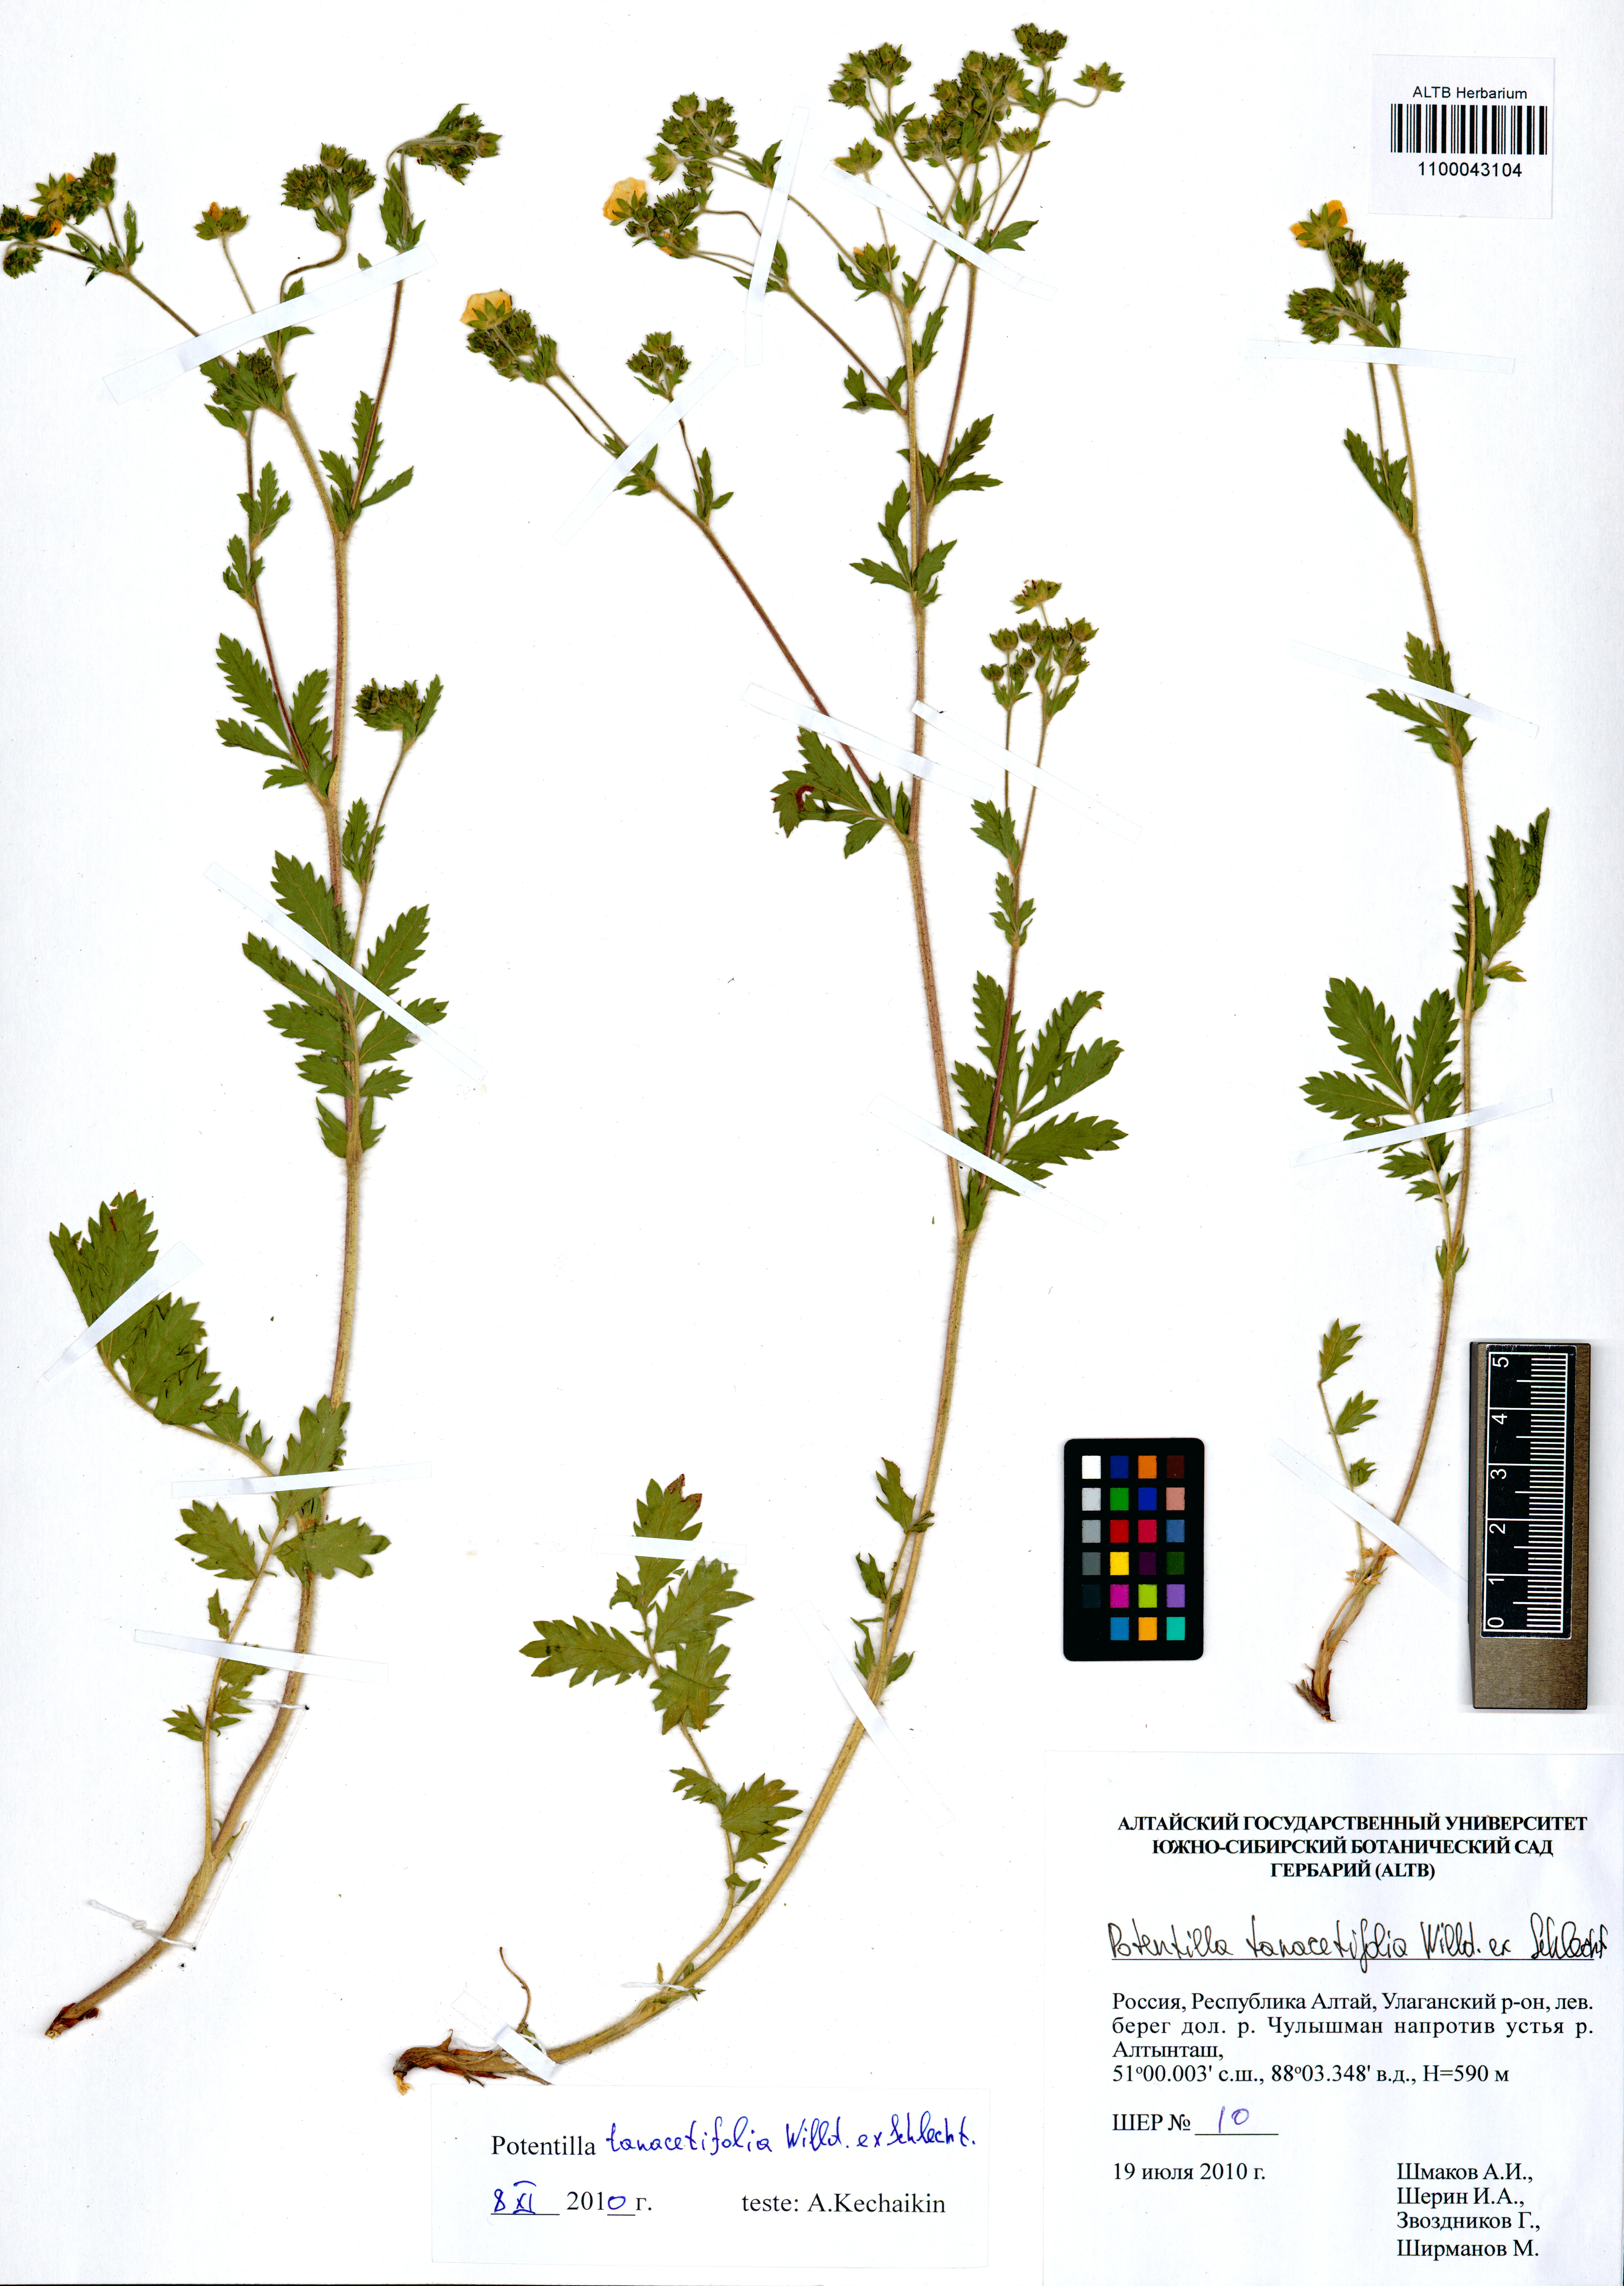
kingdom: Plantae
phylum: Tracheophyta
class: Magnoliopsida
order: Rosales
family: Rosaceae
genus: Potentilla
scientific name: Potentilla tanacetifolia
